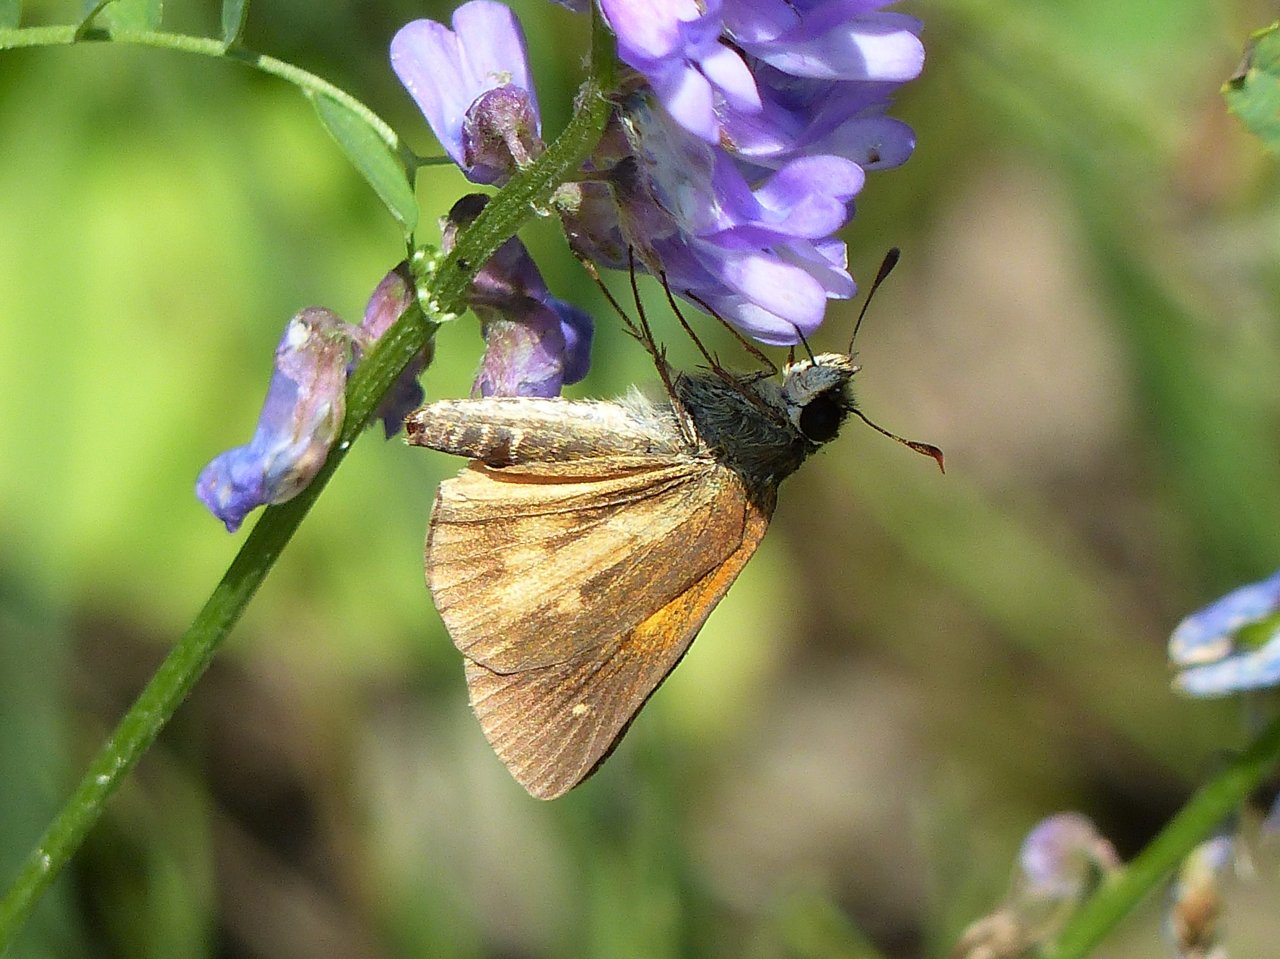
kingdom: Animalia
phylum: Arthropoda
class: Insecta
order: Lepidoptera
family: Hesperiidae
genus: Poanes
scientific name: Poanes viator
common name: Broad-winged Skipper
